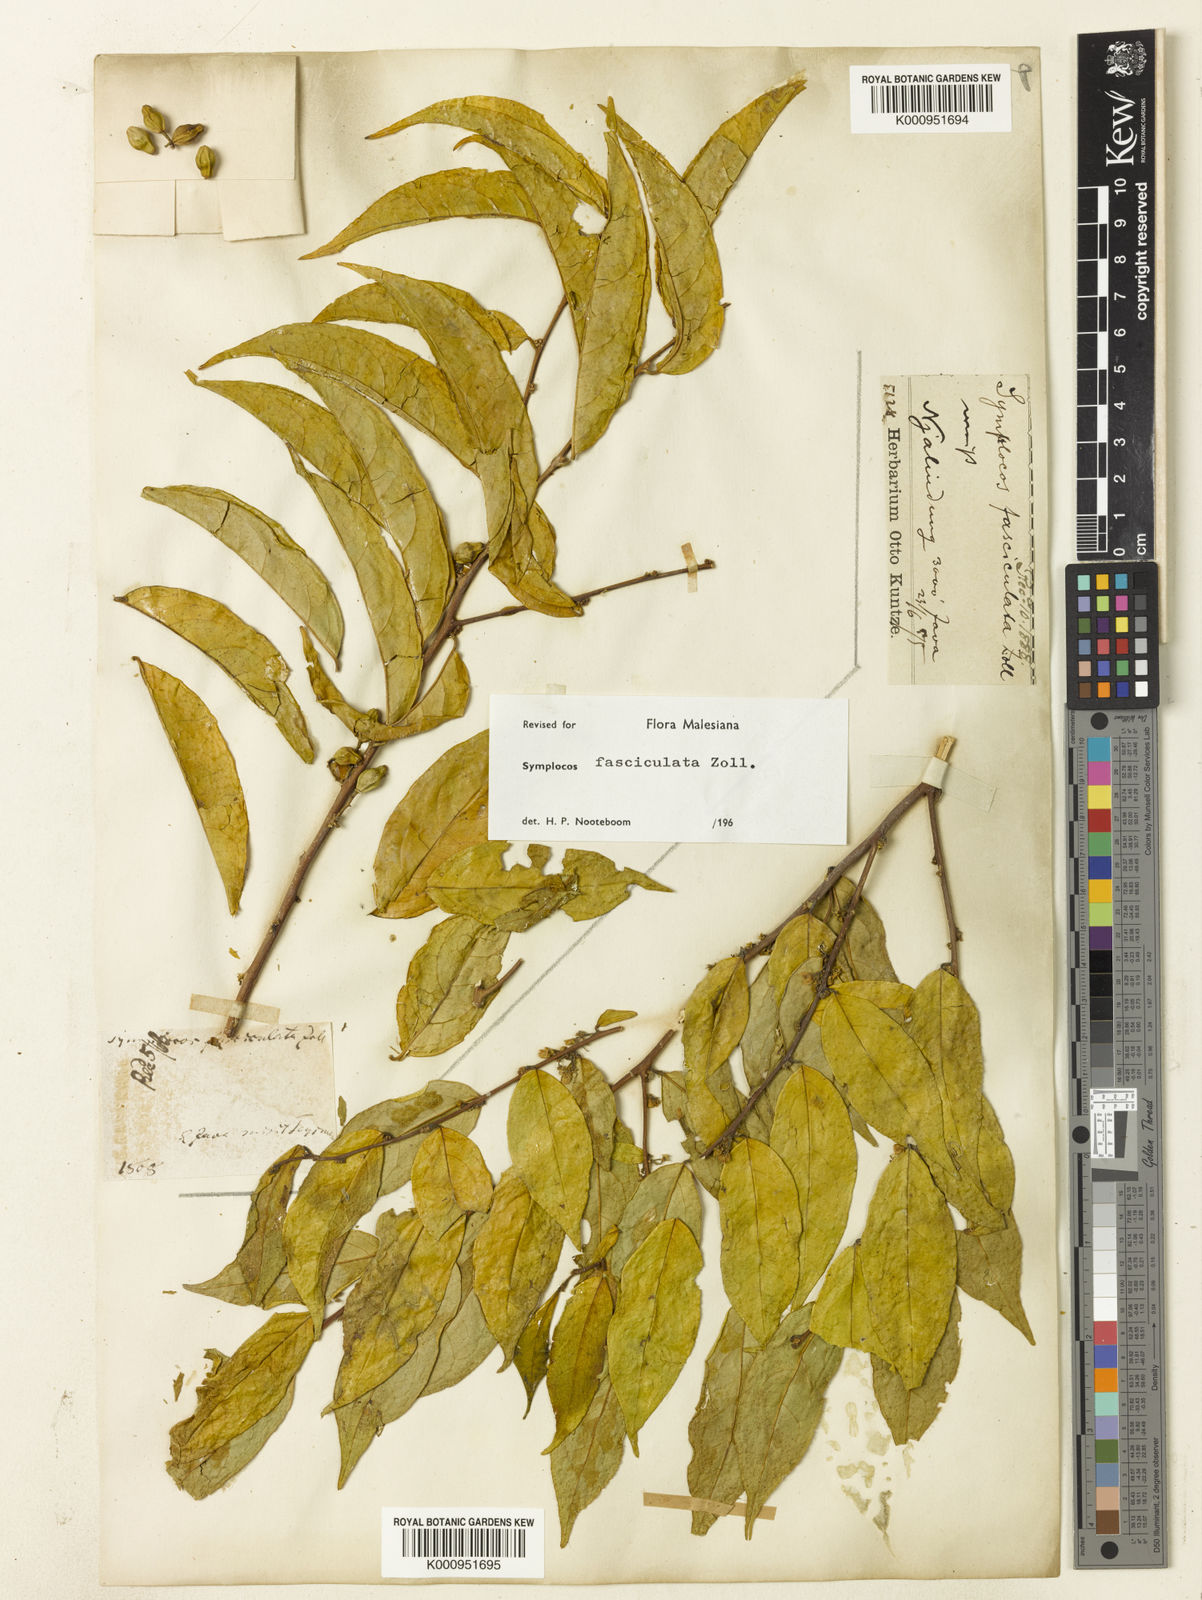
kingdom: Plantae
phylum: Tracheophyta
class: Magnoliopsida
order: Ericales
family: Symplocaceae
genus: Symplocos
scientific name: Symplocos fasciculata
